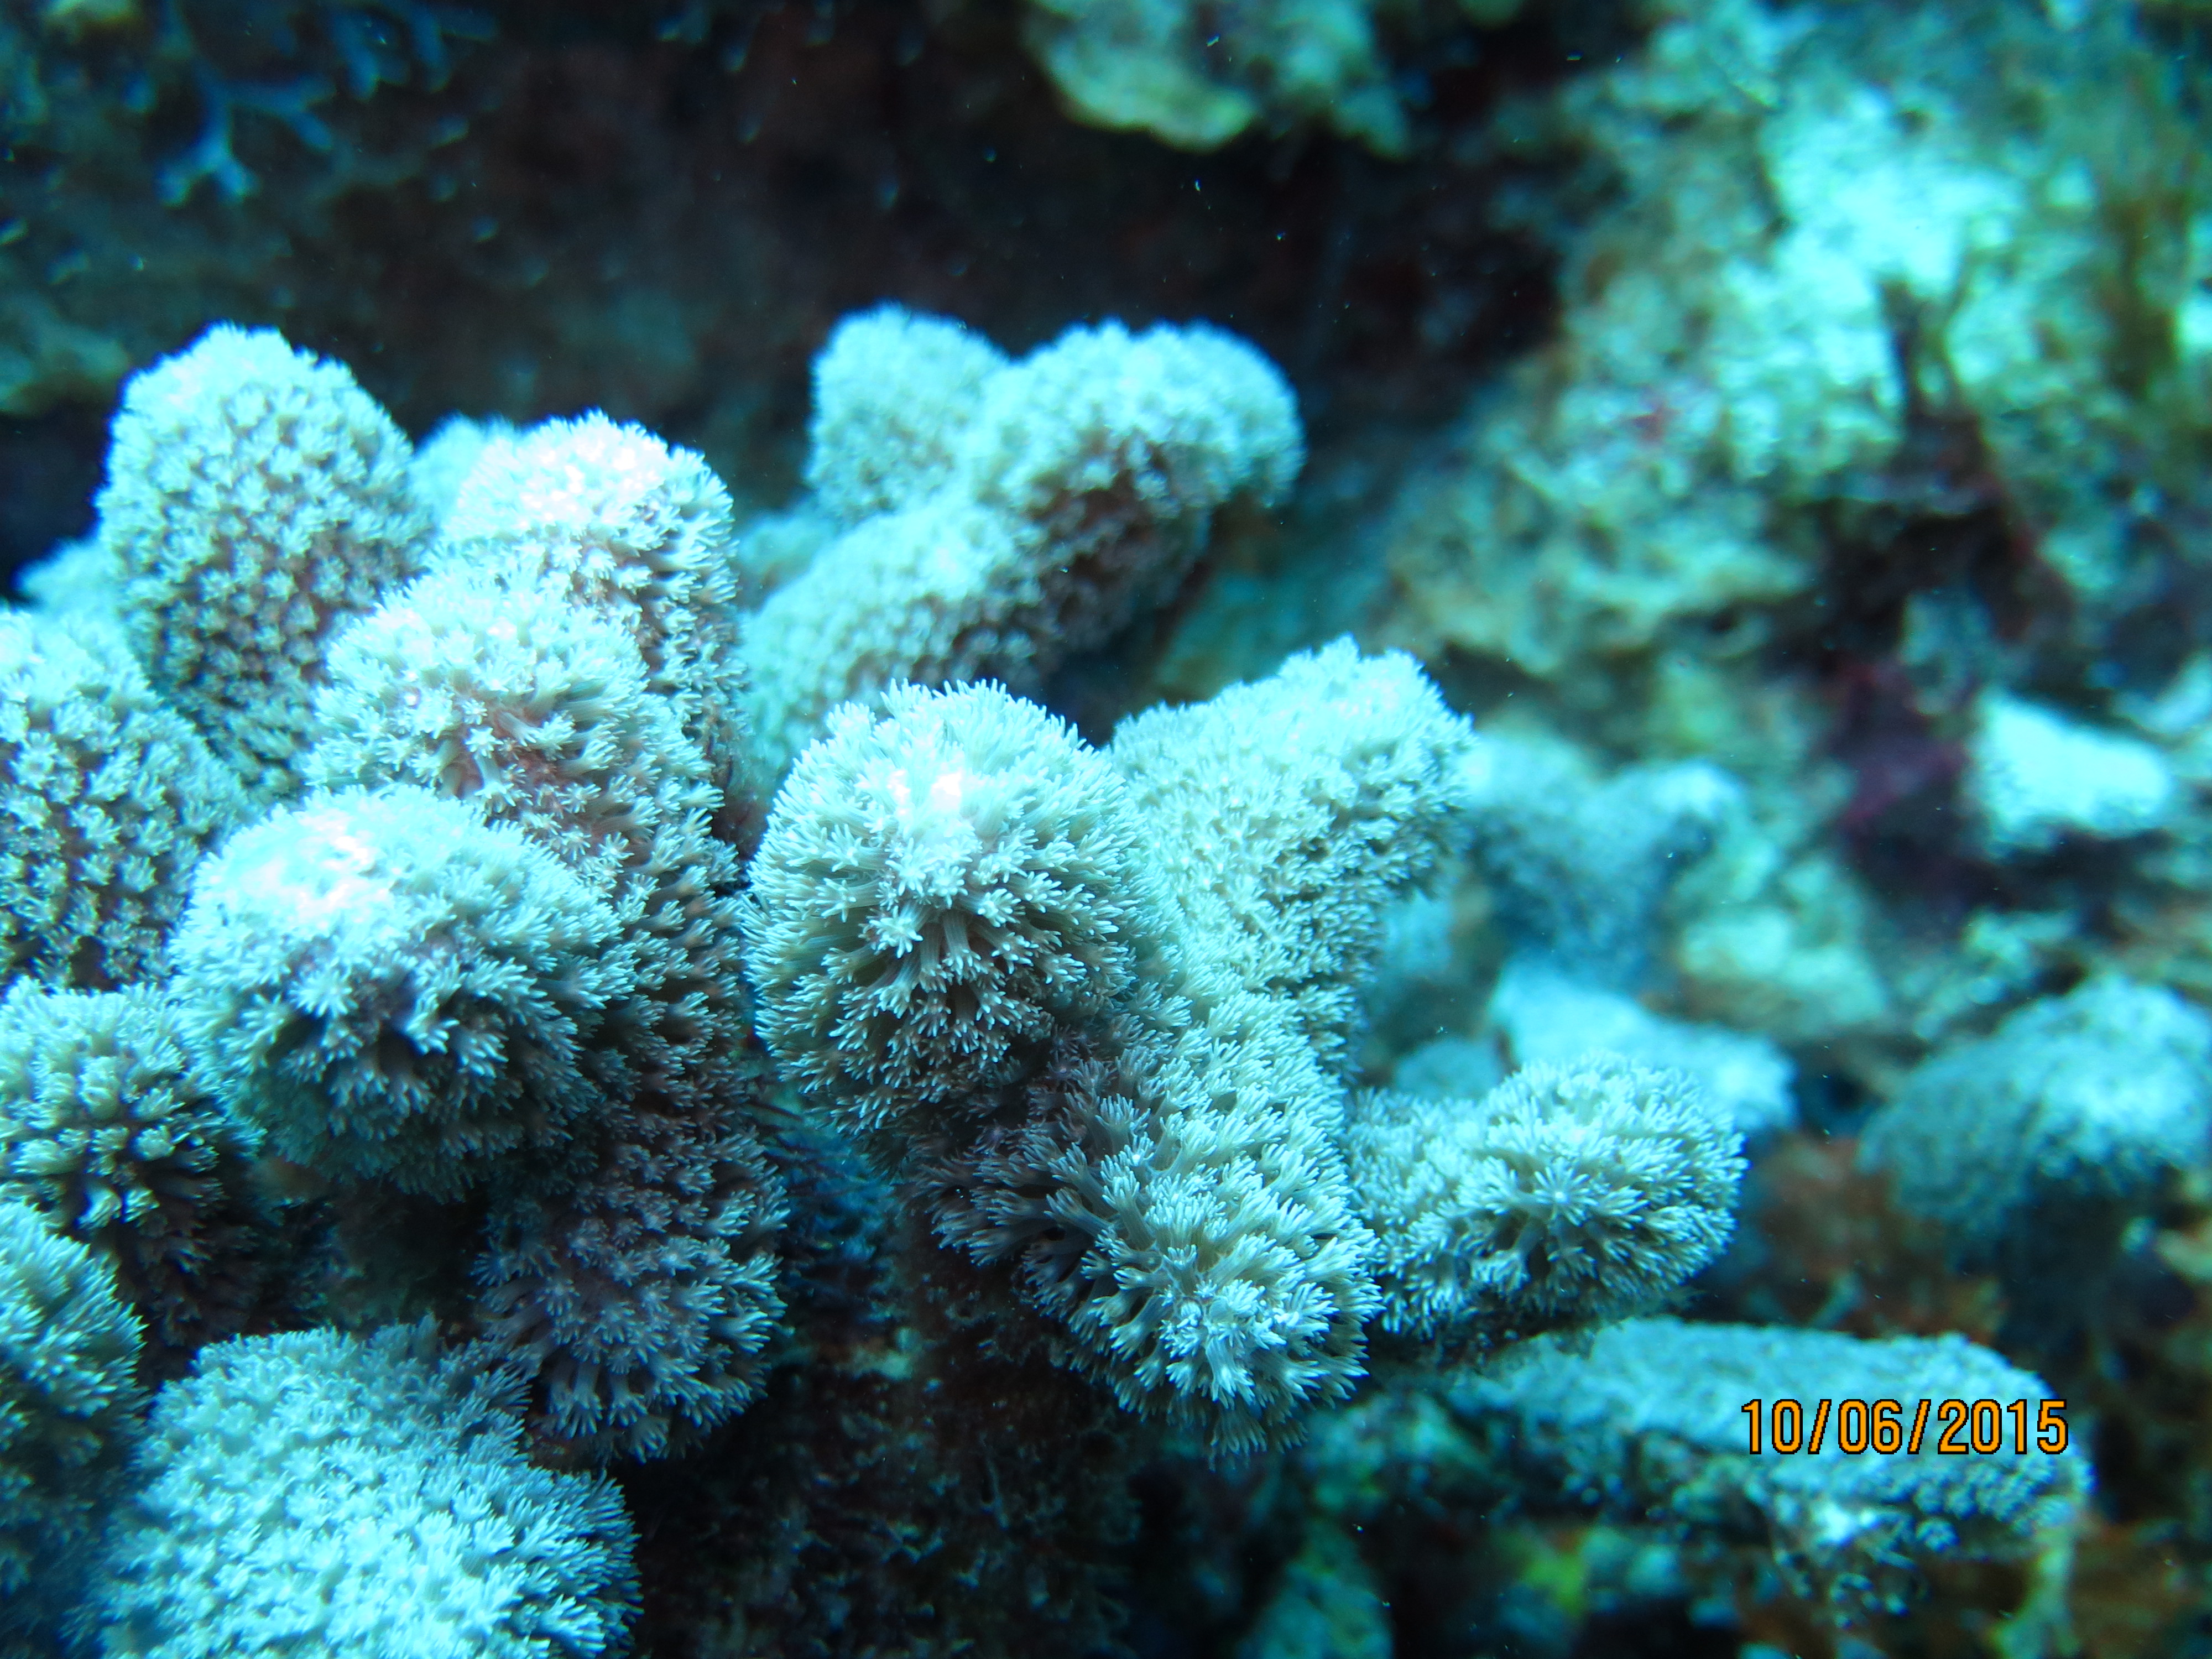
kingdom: Animalia
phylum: Cnidaria
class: Anthozoa
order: Scleractinia
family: Poritidae
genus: Porites
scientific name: Porites furcata
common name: Hump coral
